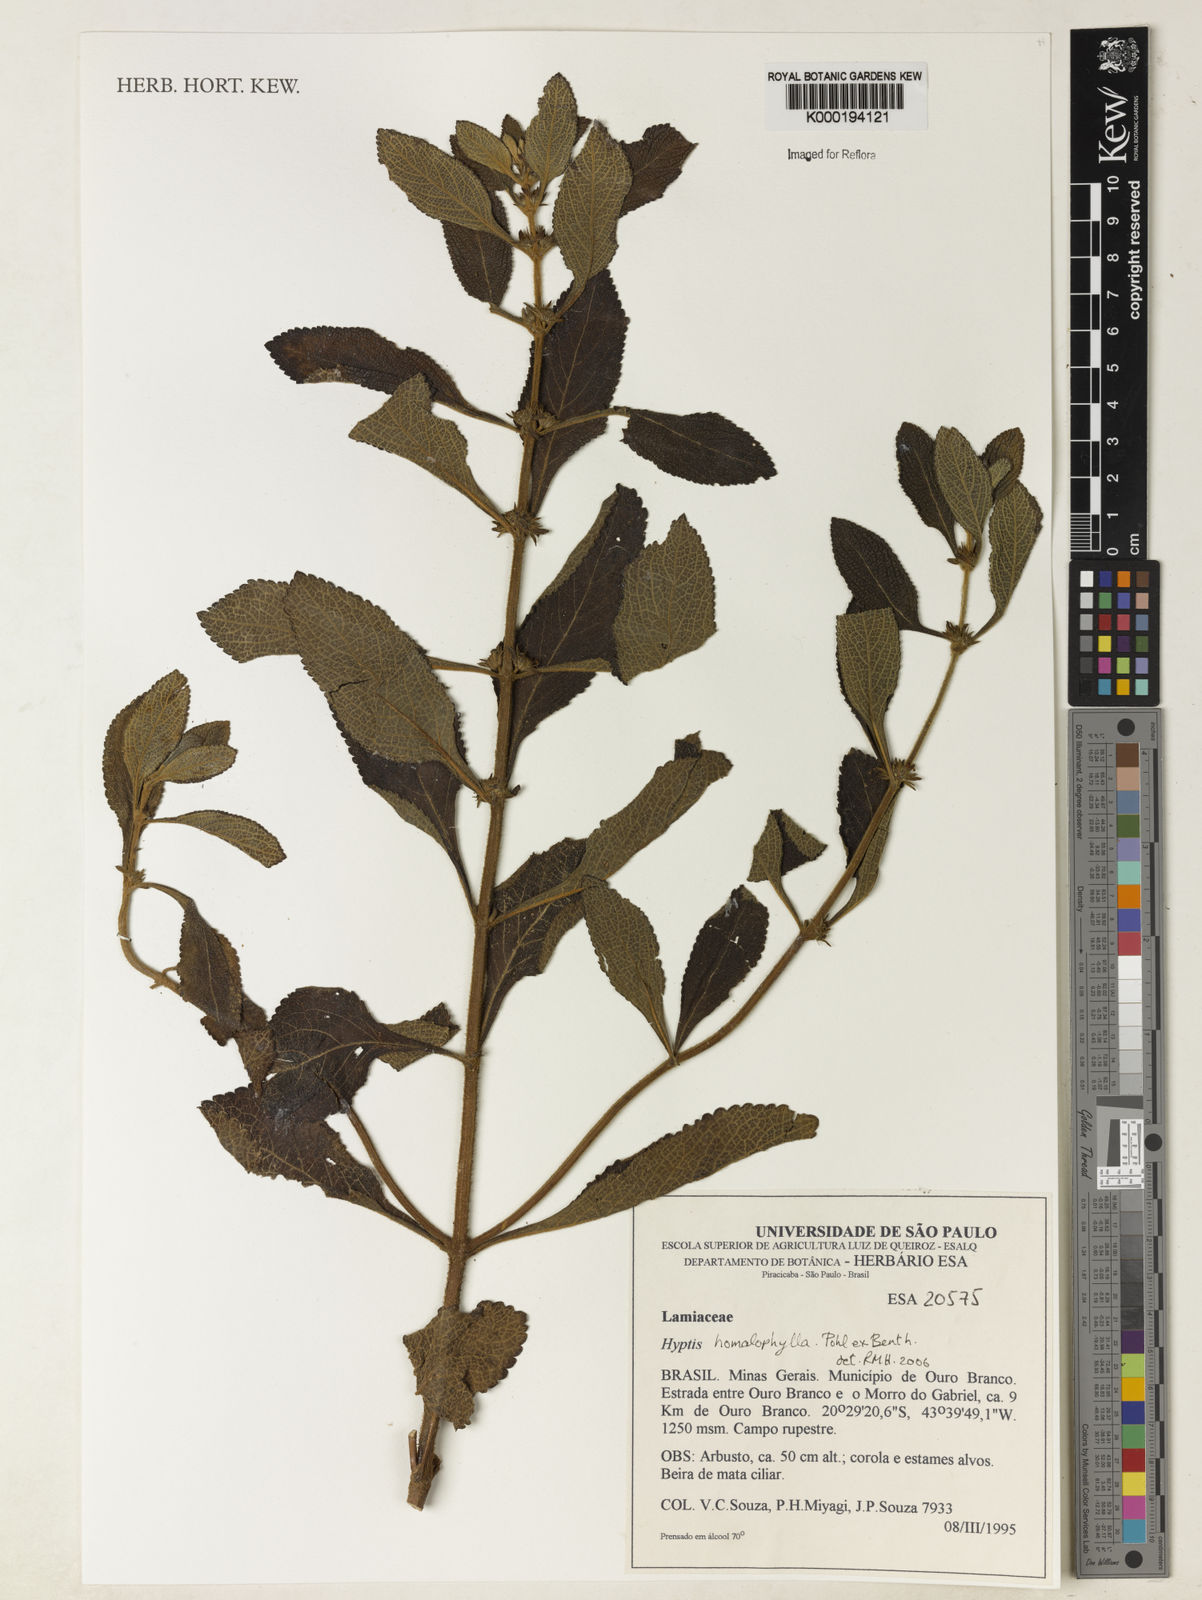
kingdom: Plantae
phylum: Tracheophyta
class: Magnoliopsida
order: Lamiales
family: Lamiaceae
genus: Hyptis
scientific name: Hyptis homalophylla
